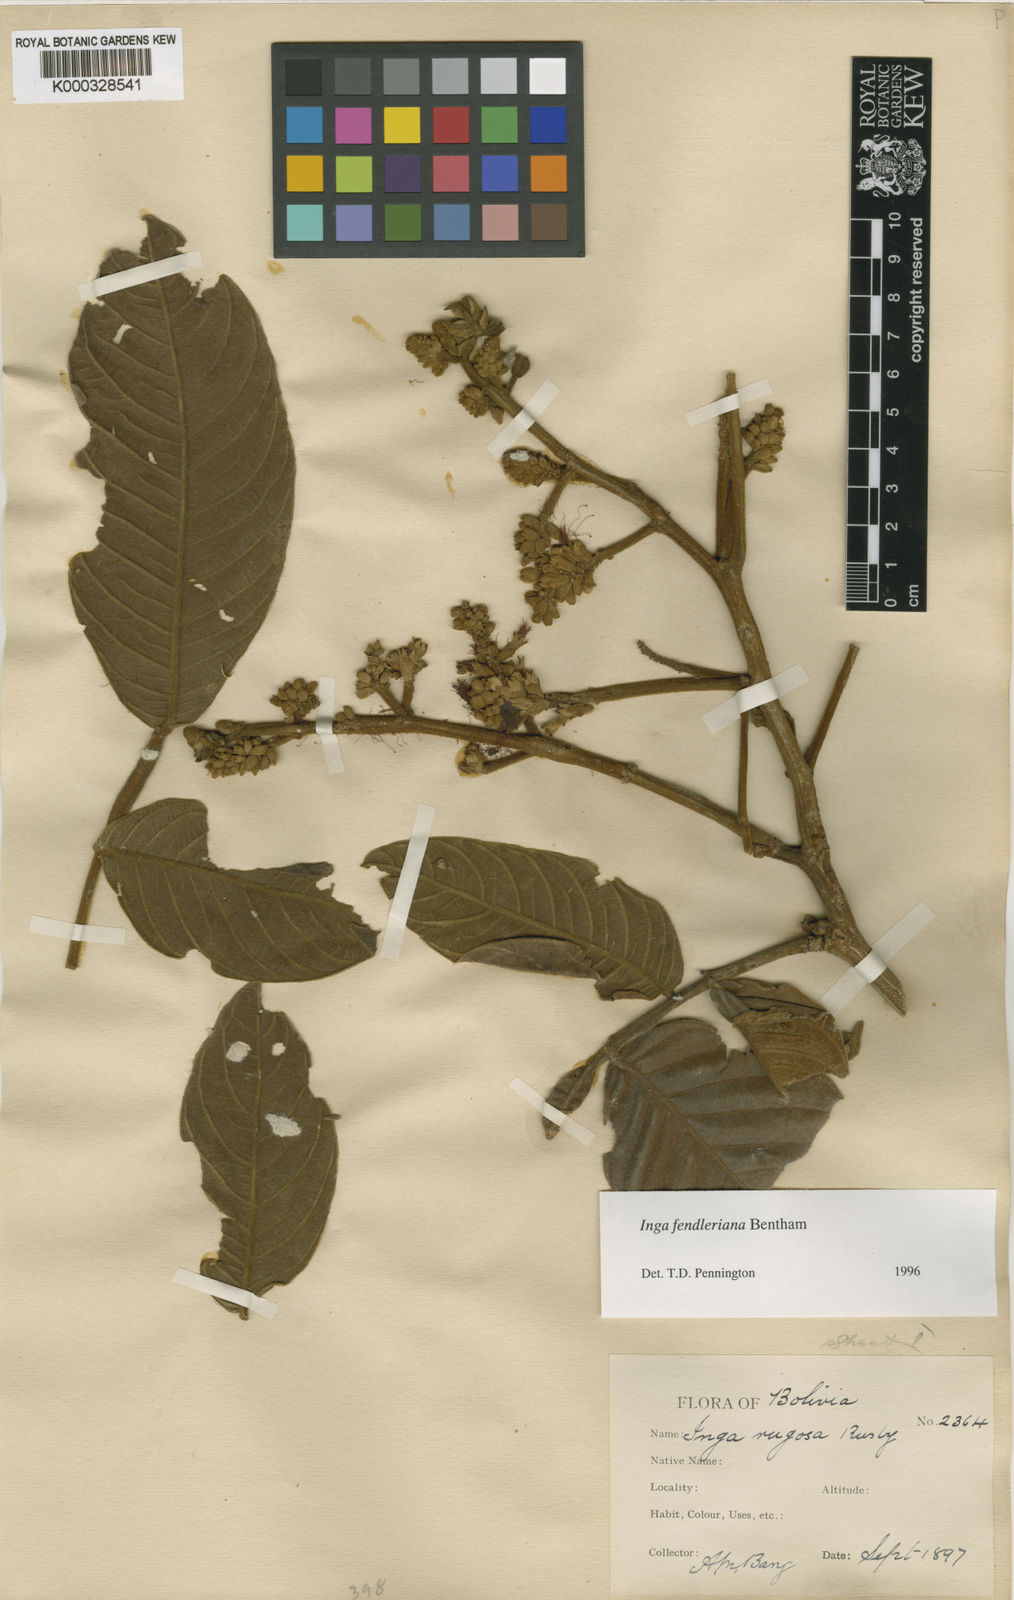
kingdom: Plantae
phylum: Tracheophyta
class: Magnoliopsida
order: Fabales
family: Fabaceae
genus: Inga
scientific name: Inga fendleriana
